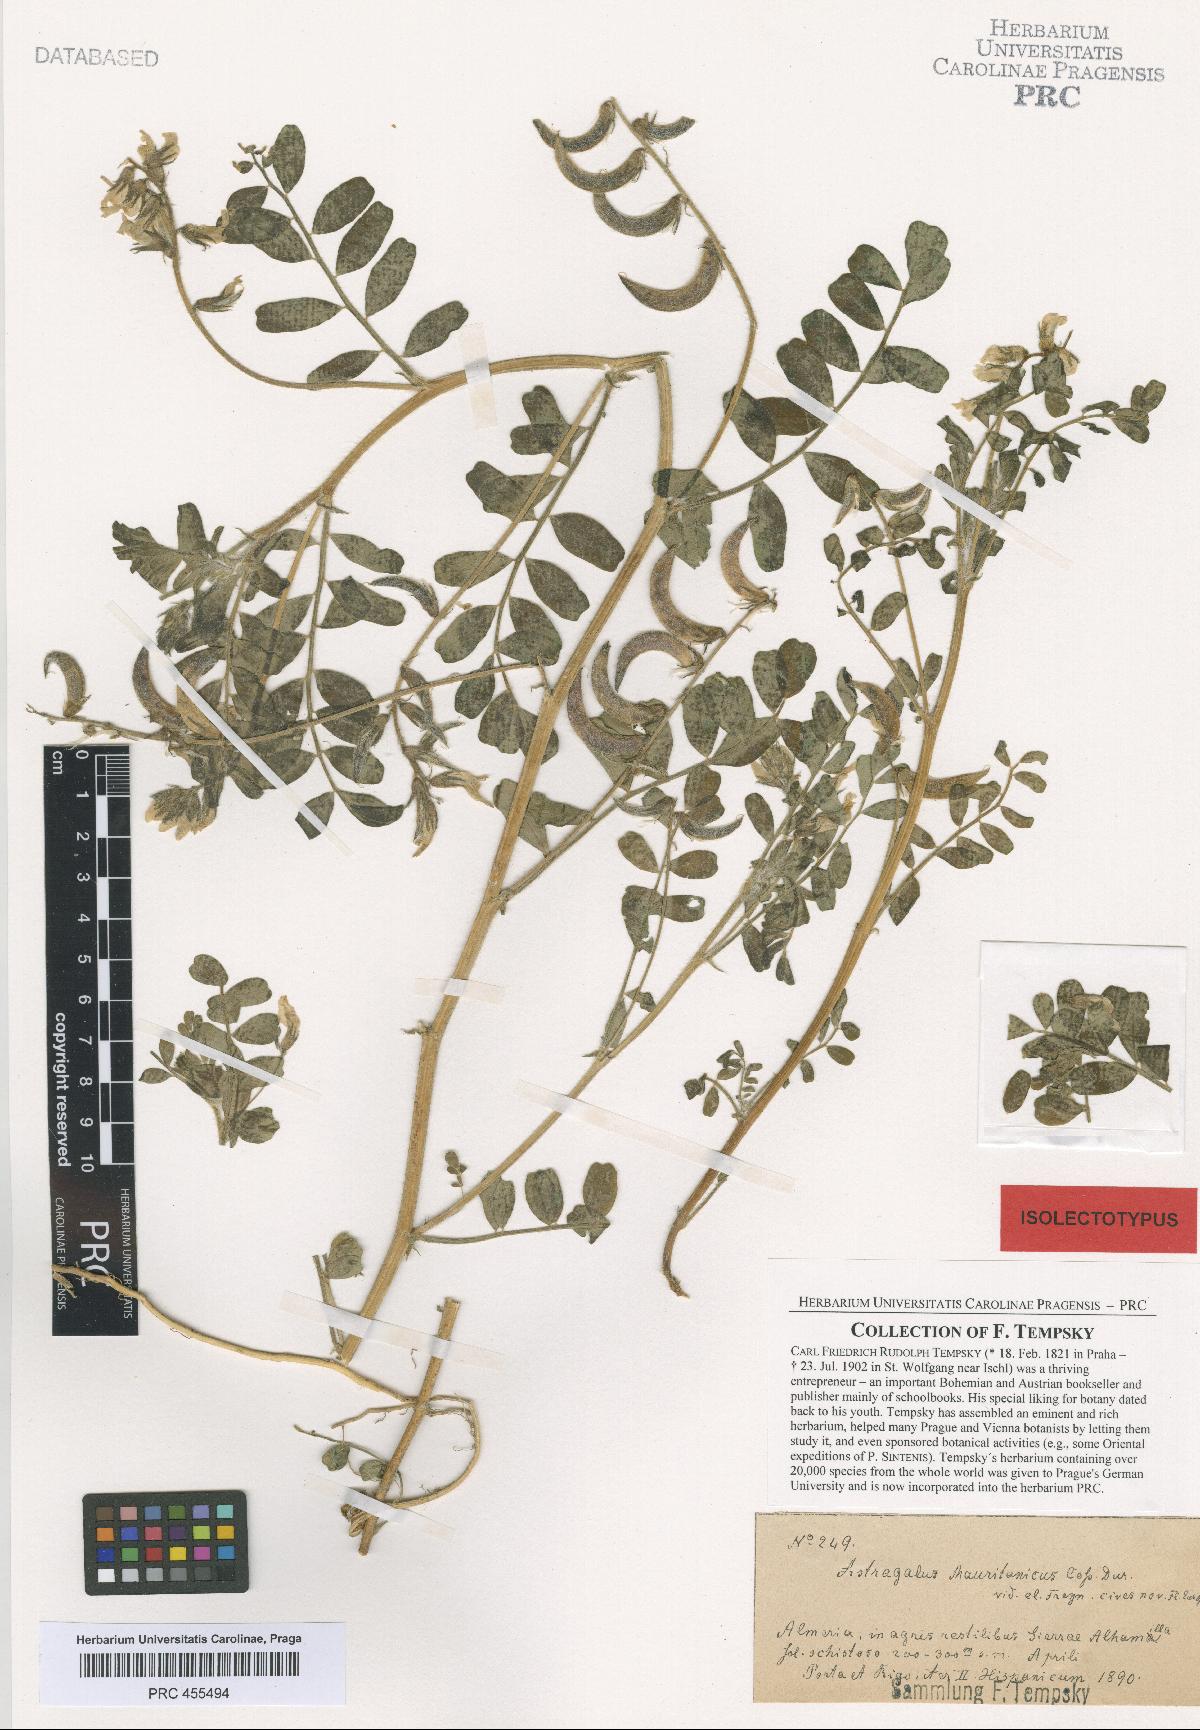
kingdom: Plantae
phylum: Tracheophyta
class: Magnoliopsida
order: Fabales
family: Fabaceae
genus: Astragalus
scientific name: Astragalus longidentatus
